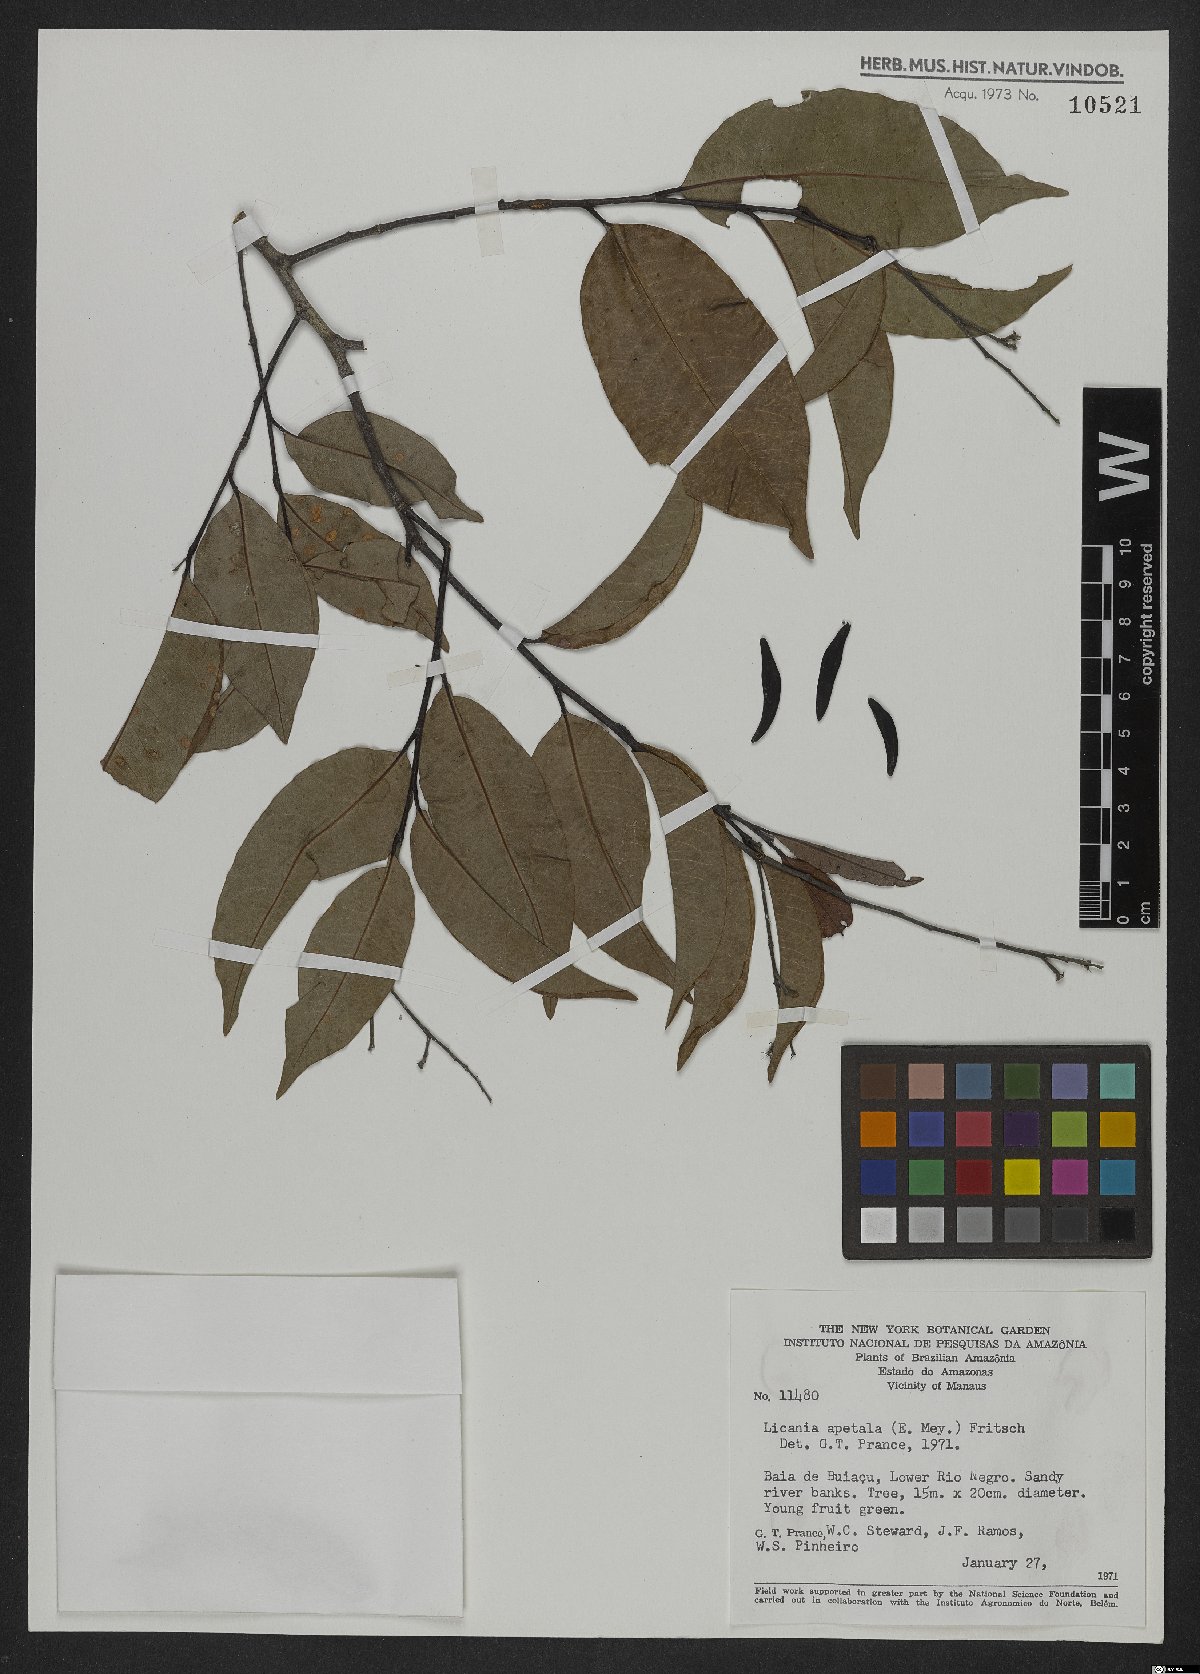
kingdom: Plantae
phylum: Tracheophyta
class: Magnoliopsida
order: Malpighiales
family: Chrysobalanaceae
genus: Leptobalanus
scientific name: Leptobalanus apetalus
